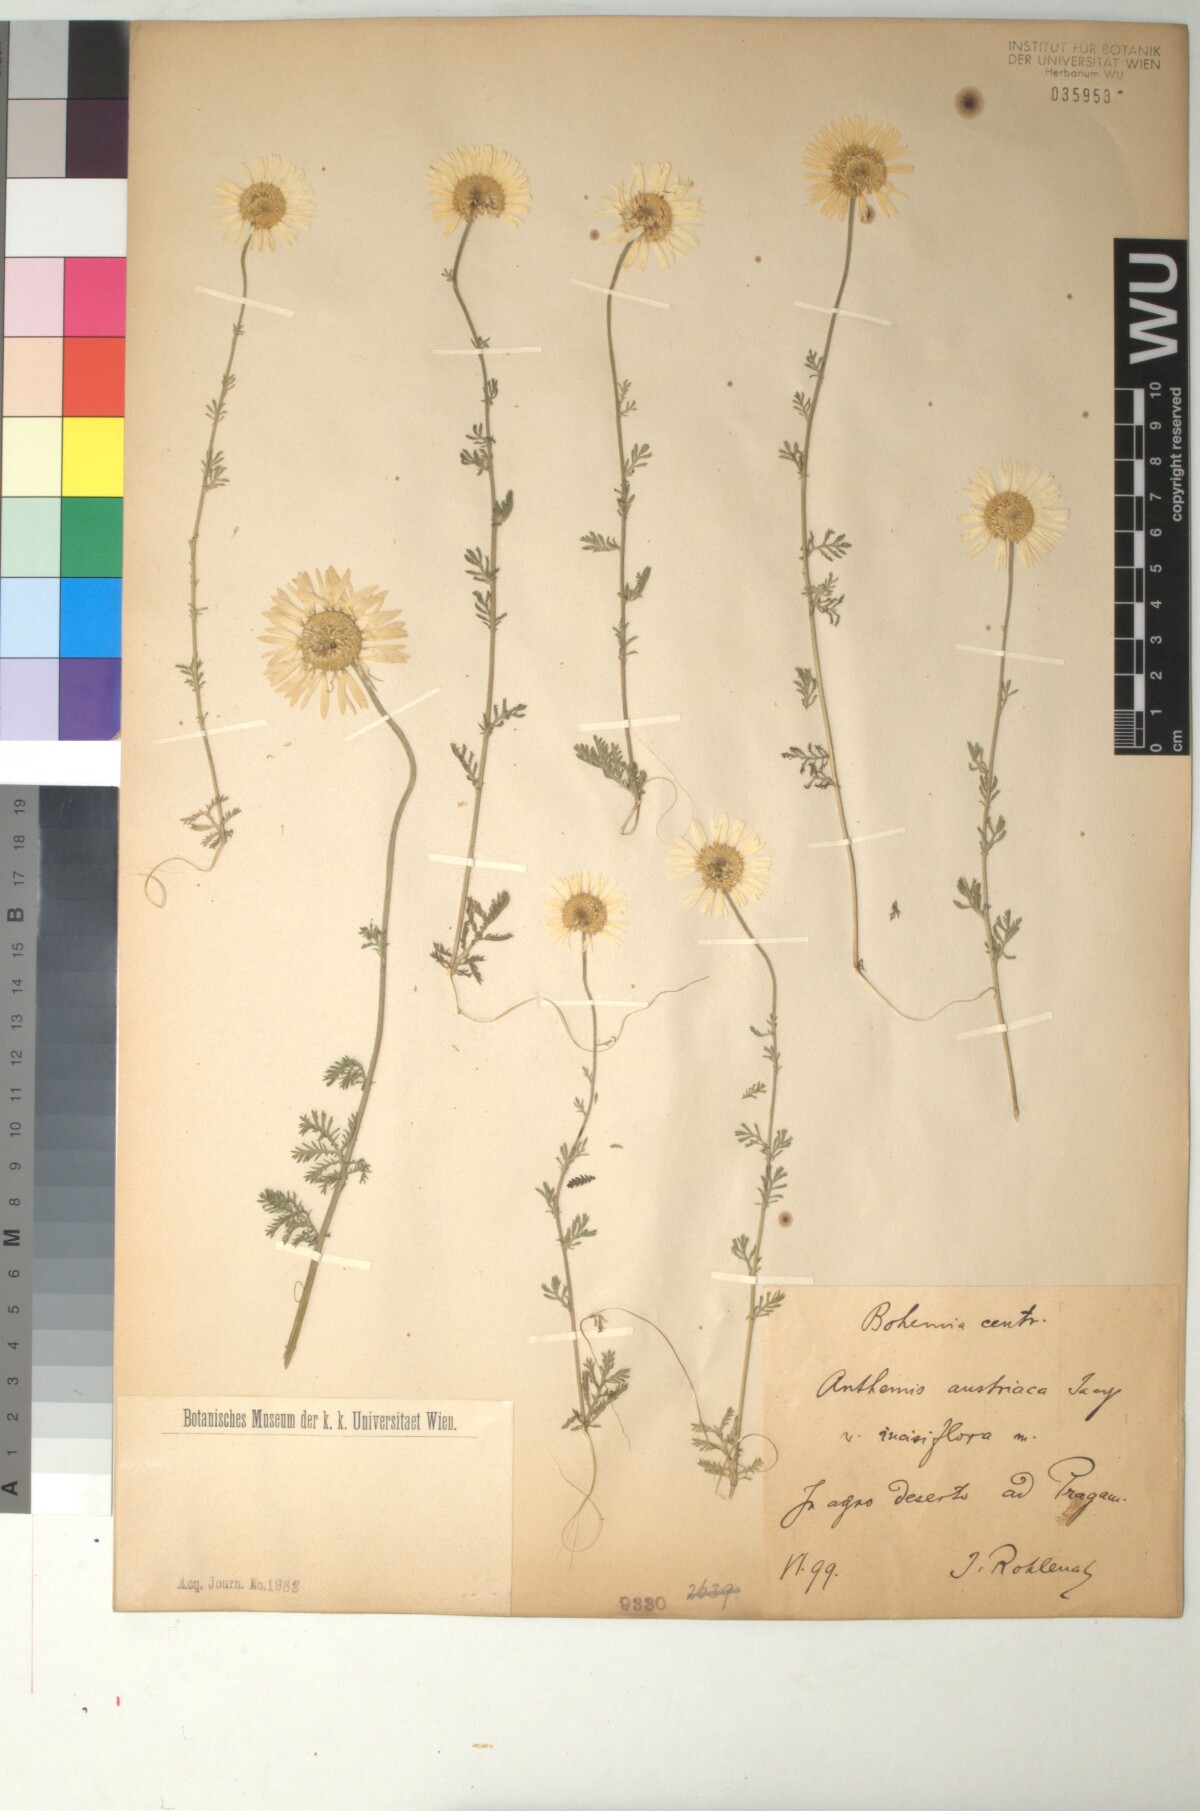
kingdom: Plantae
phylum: Tracheophyta
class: Magnoliopsida
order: Asterales
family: Asteraceae
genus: Cota
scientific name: Cota austriaca
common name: Austrian chamomile
